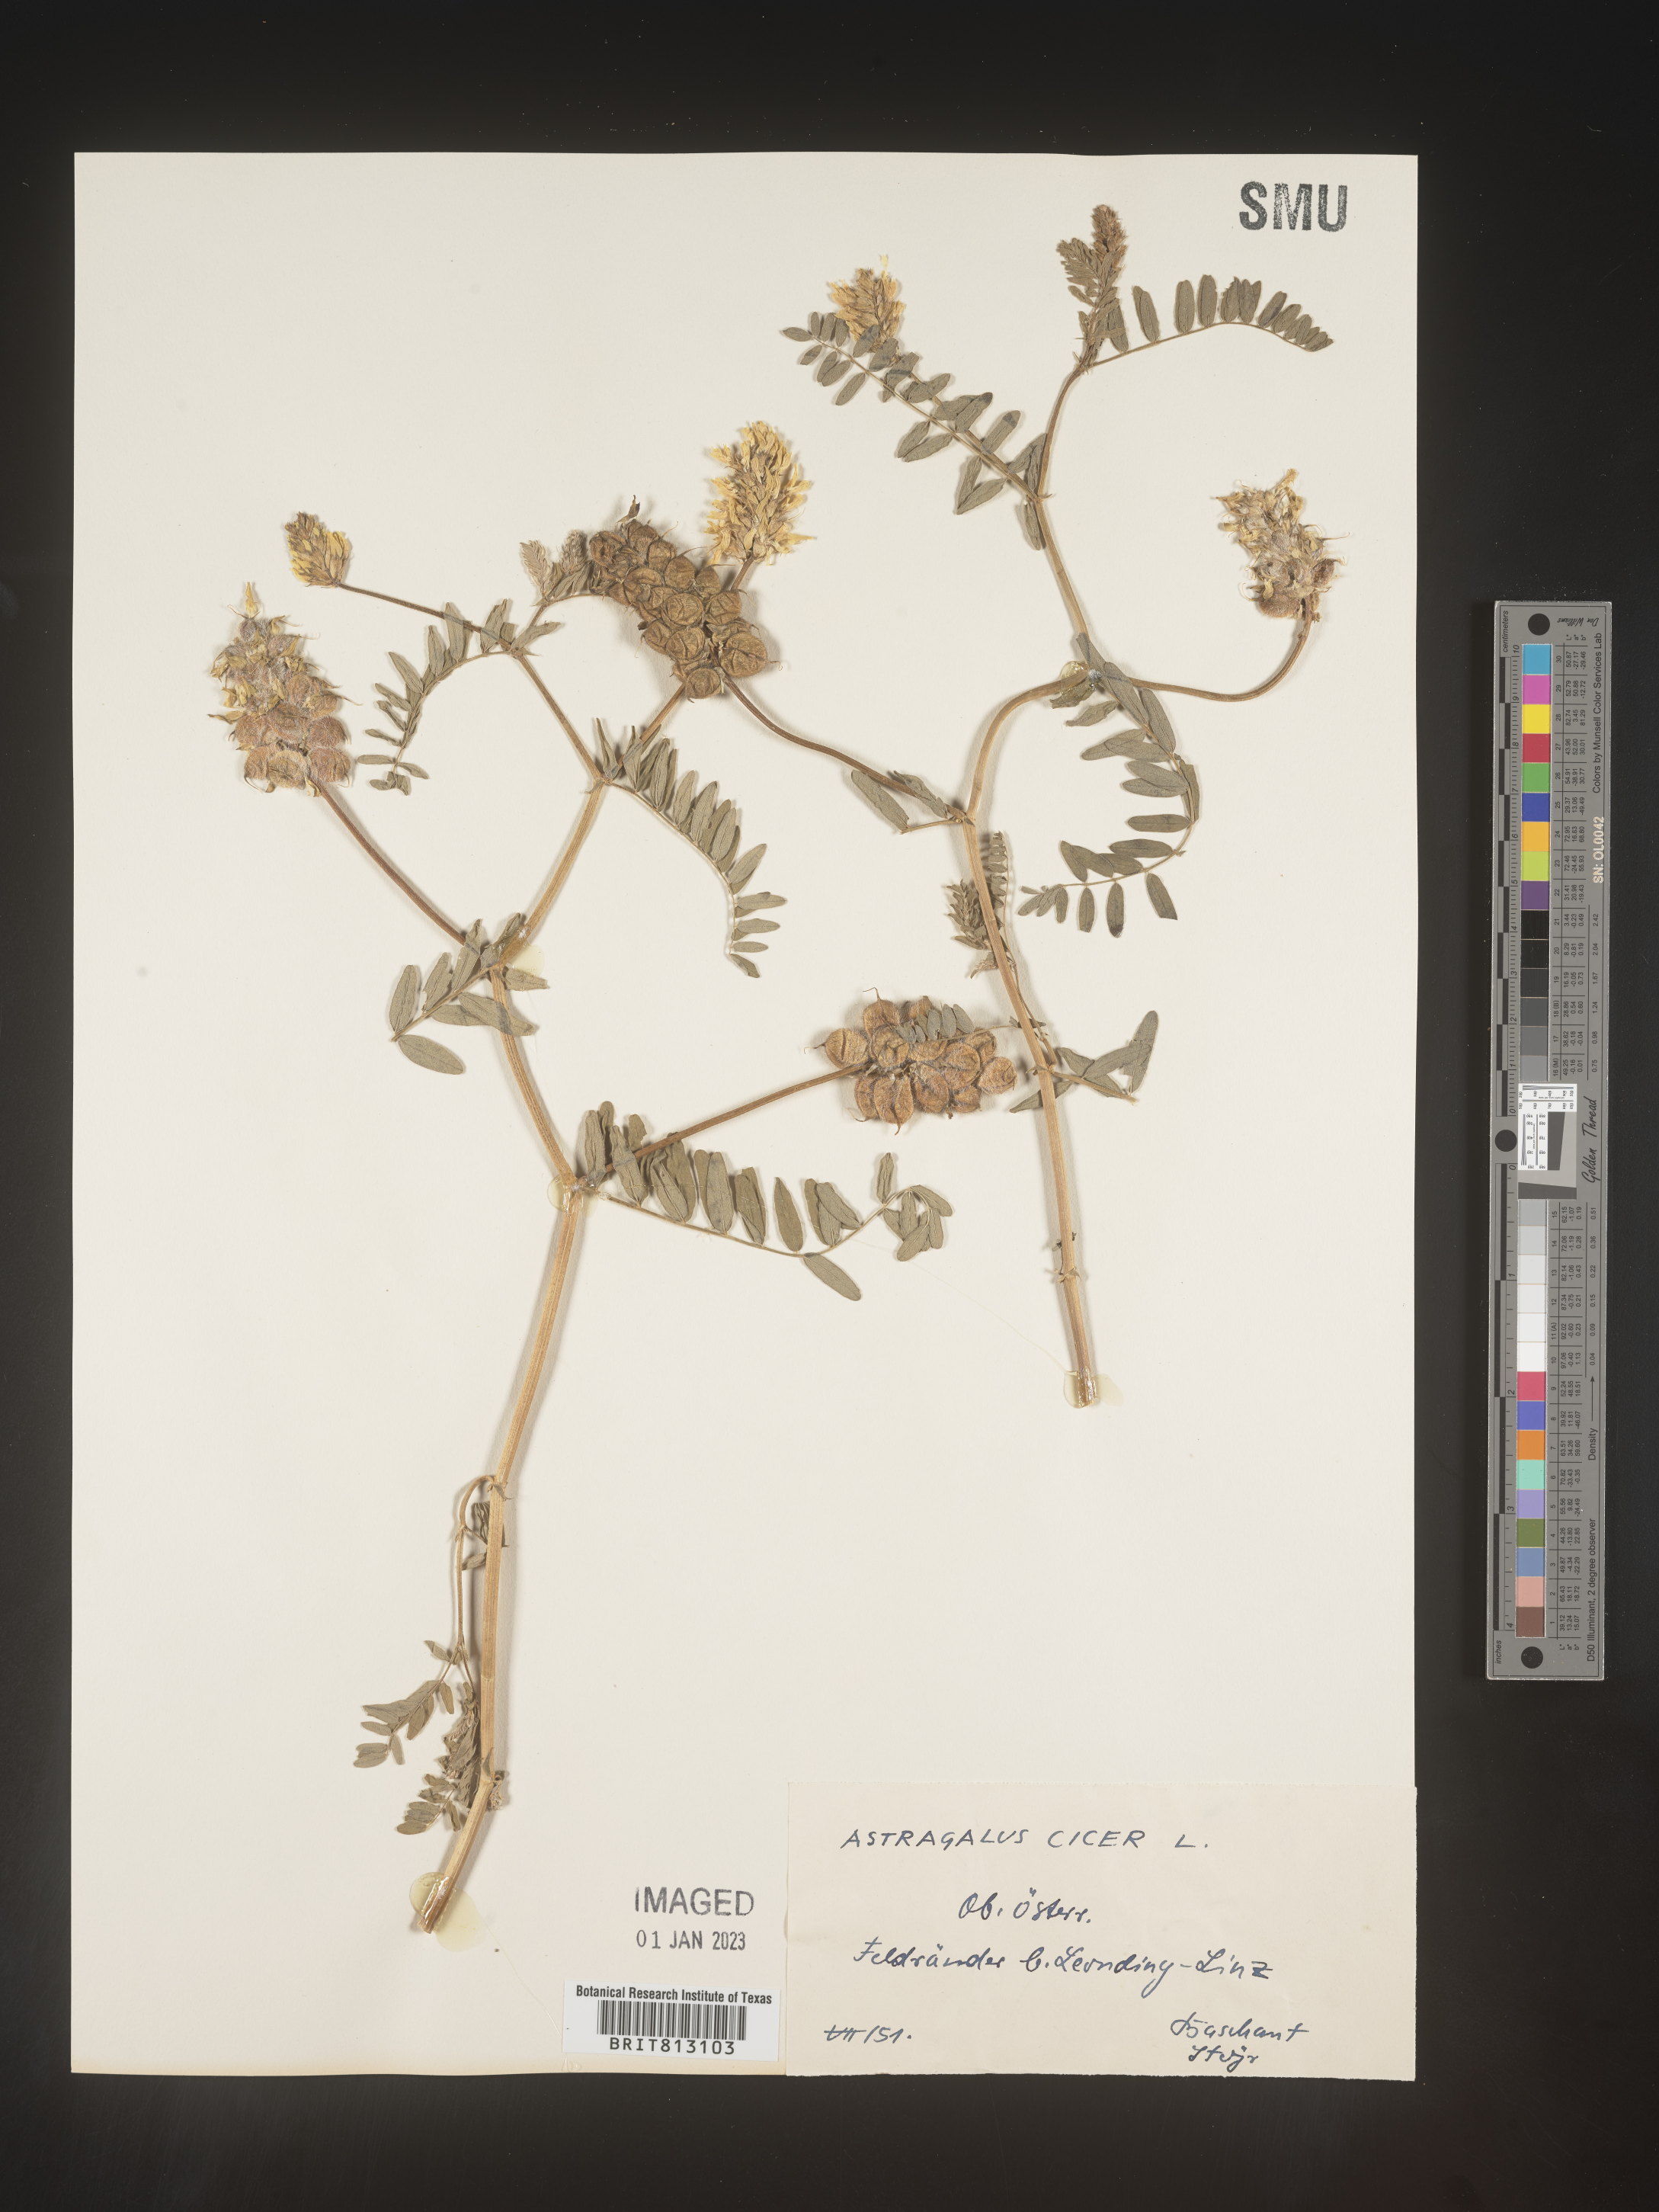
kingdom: Plantae
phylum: Tracheophyta
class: Magnoliopsida
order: Fabales
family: Fabaceae
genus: Astragalus
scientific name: Astragalus
